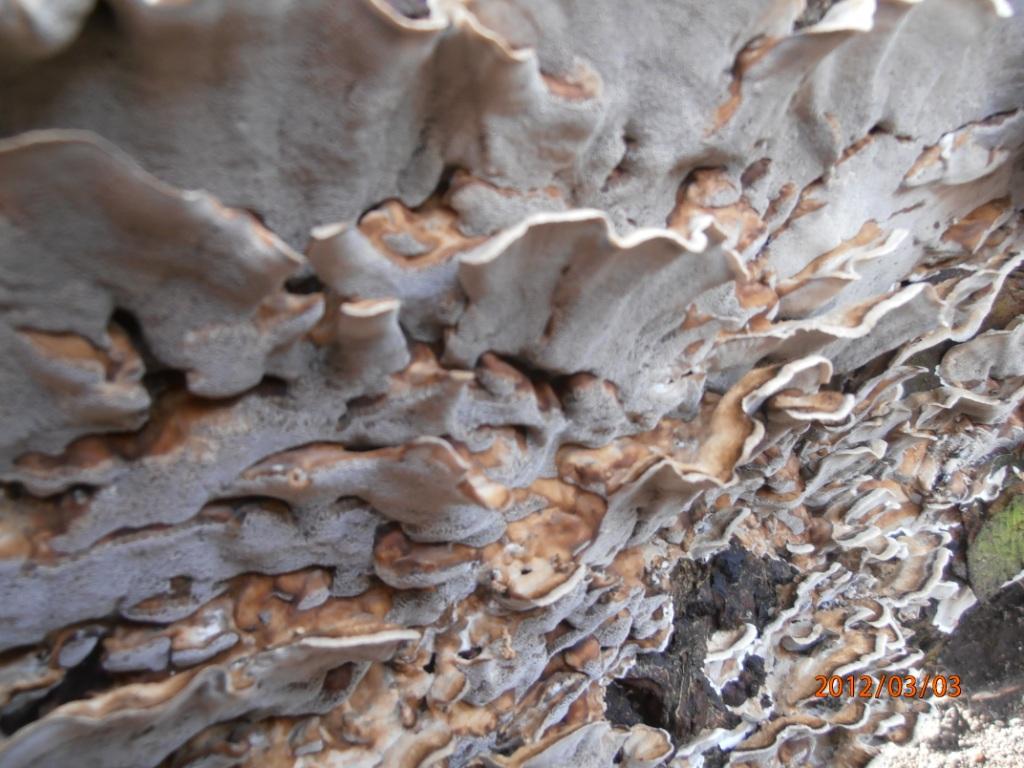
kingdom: Fungi
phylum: Basidiomycota
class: Agaricomycetes
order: Polyporales
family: Polyporaceae
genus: Podofomes
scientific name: Podofomes mollis
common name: blød begporesvamp
